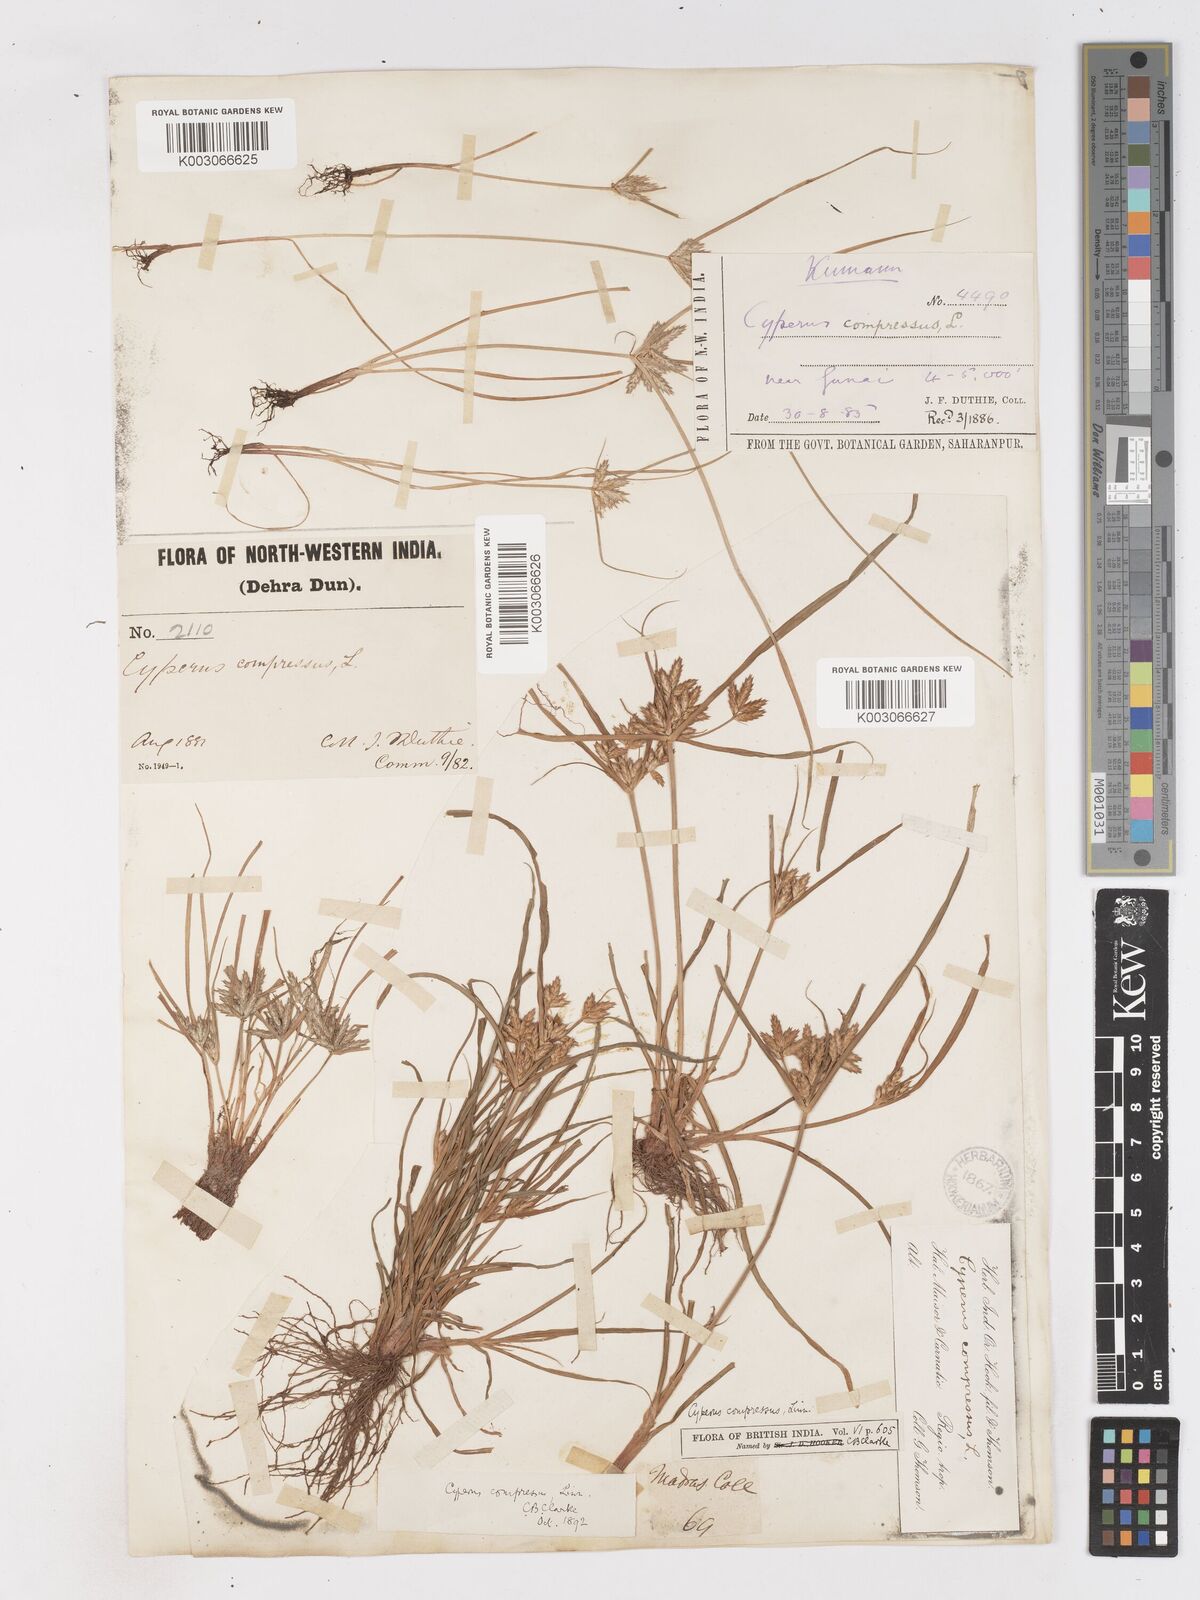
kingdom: Plantae
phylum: Tracheophyta
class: Liliopsida
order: Poales
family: Cyperaceae
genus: Cyperus
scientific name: Cyperus compressus
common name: Poorland flatsedge
